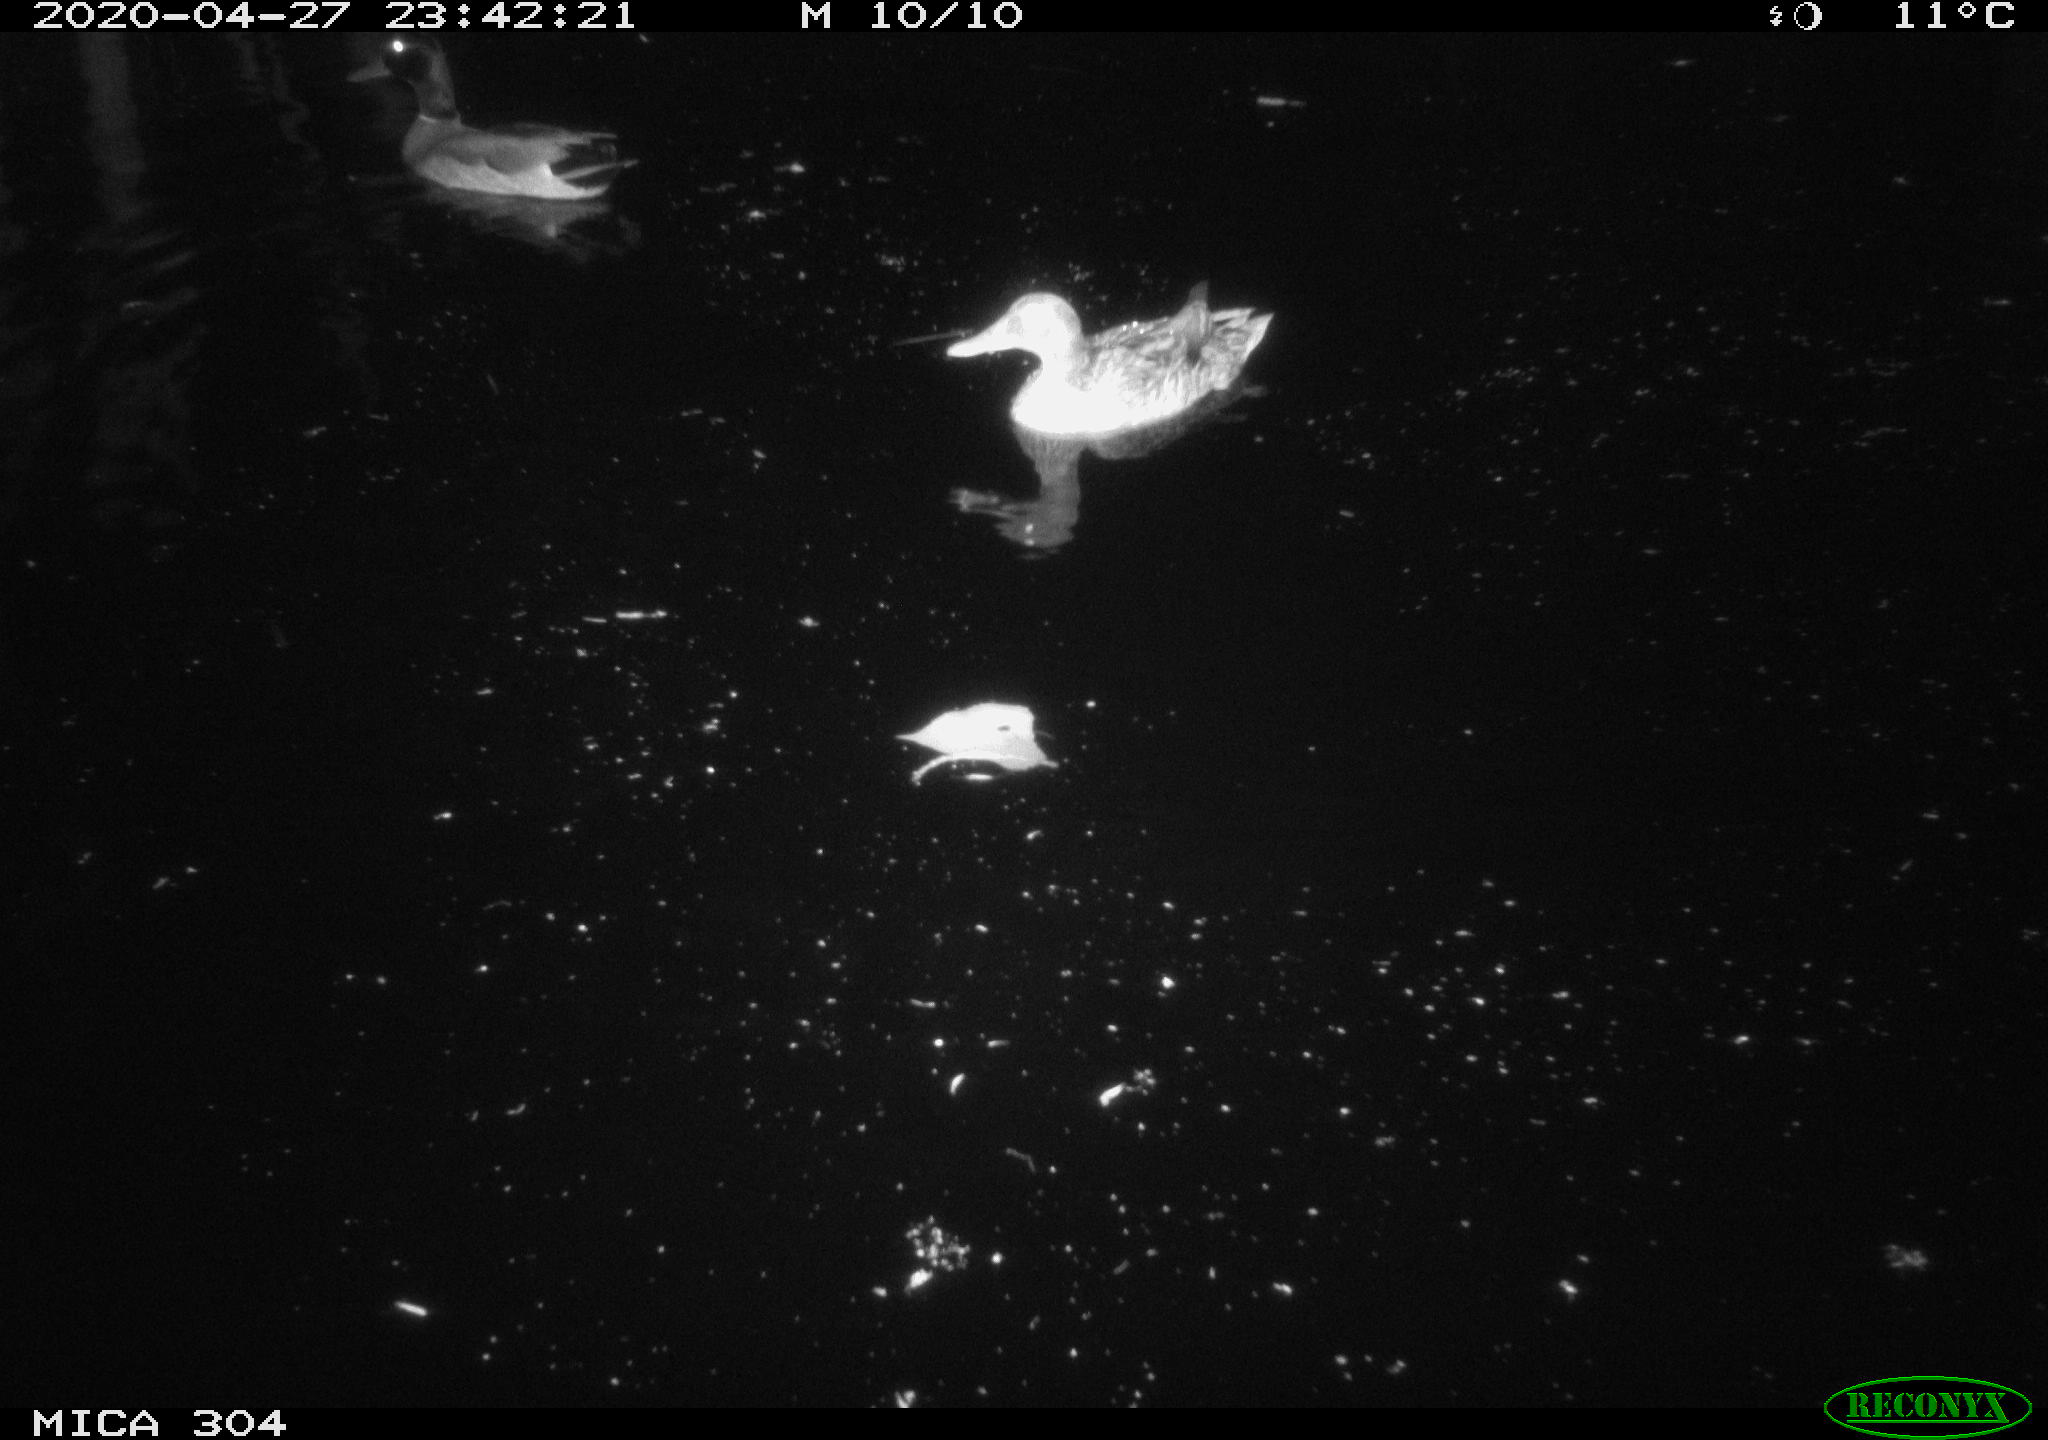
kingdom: Animalia
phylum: Chordata
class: Aves
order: Anseriformes
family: Anatidae
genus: Anas
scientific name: Anas platyrhynchos
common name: Mallard
